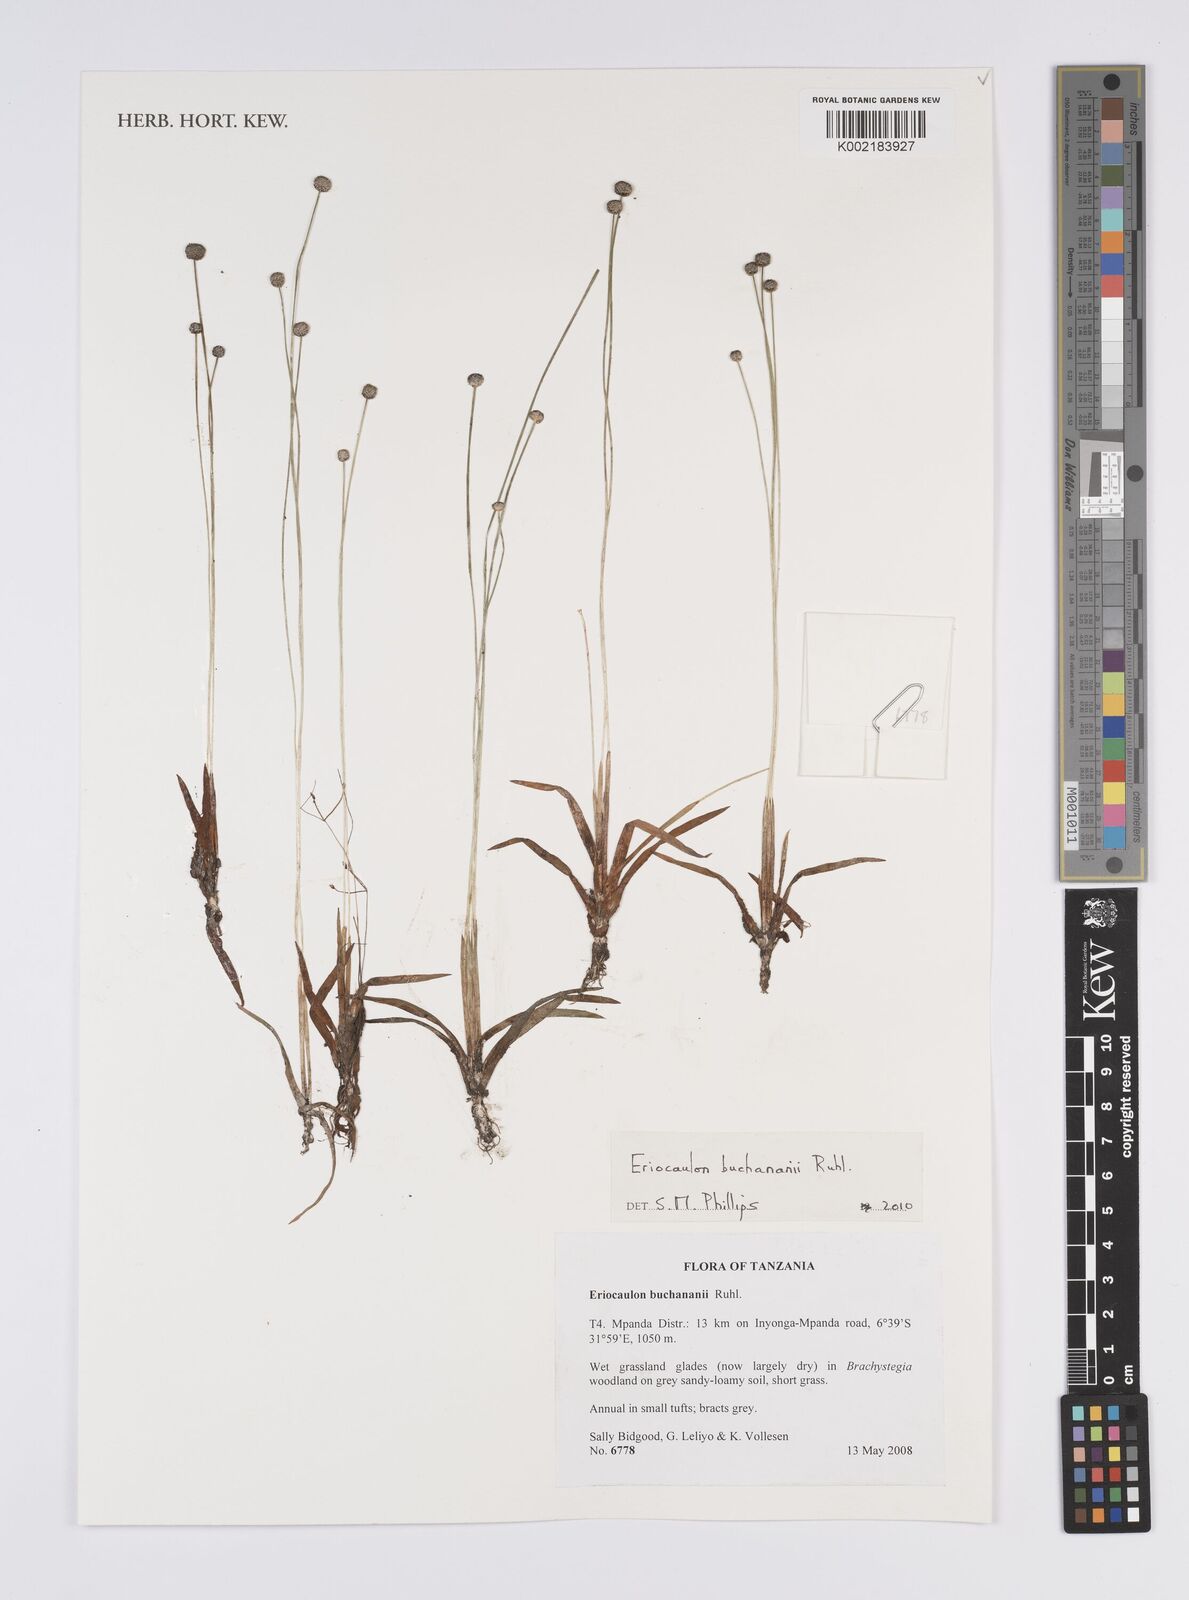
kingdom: Plantae
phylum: Tracheophyta
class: Liliopsida
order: Poales
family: Eriocaulaceae
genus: Eriocaulon
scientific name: Eriocaulon buchananii
